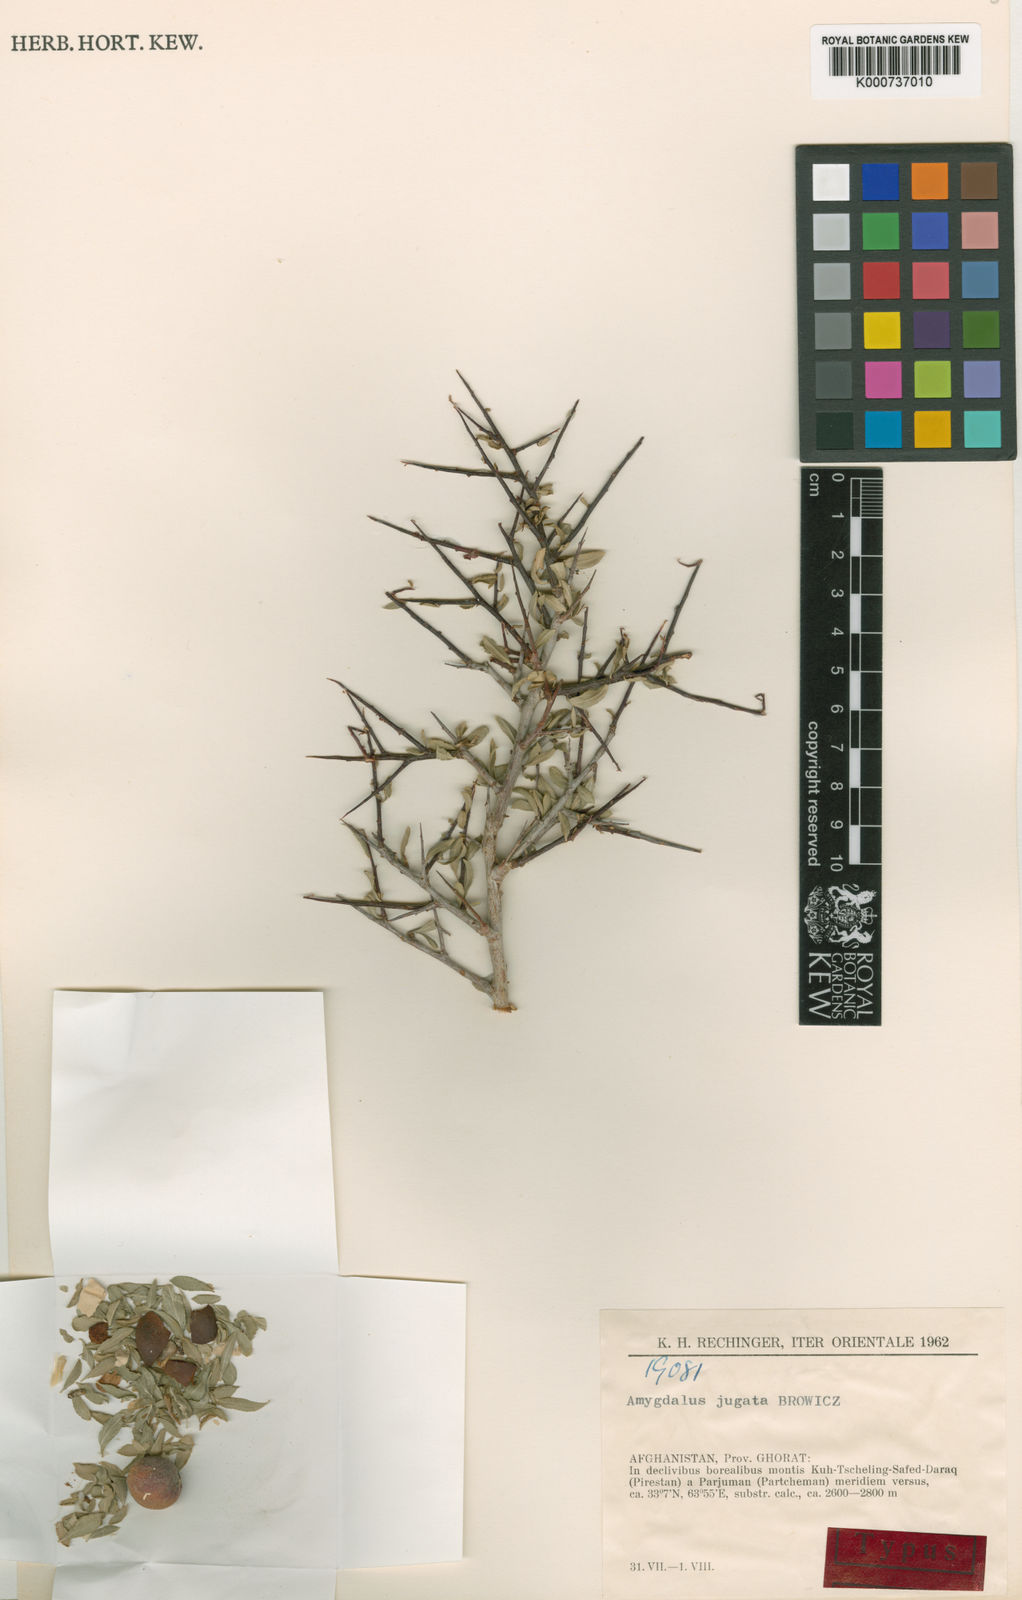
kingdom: Plantae
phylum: Tracheophyta
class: Magnoliopsida
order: Rosales
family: Rosaceae
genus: Prunus
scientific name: Prunus jugata
